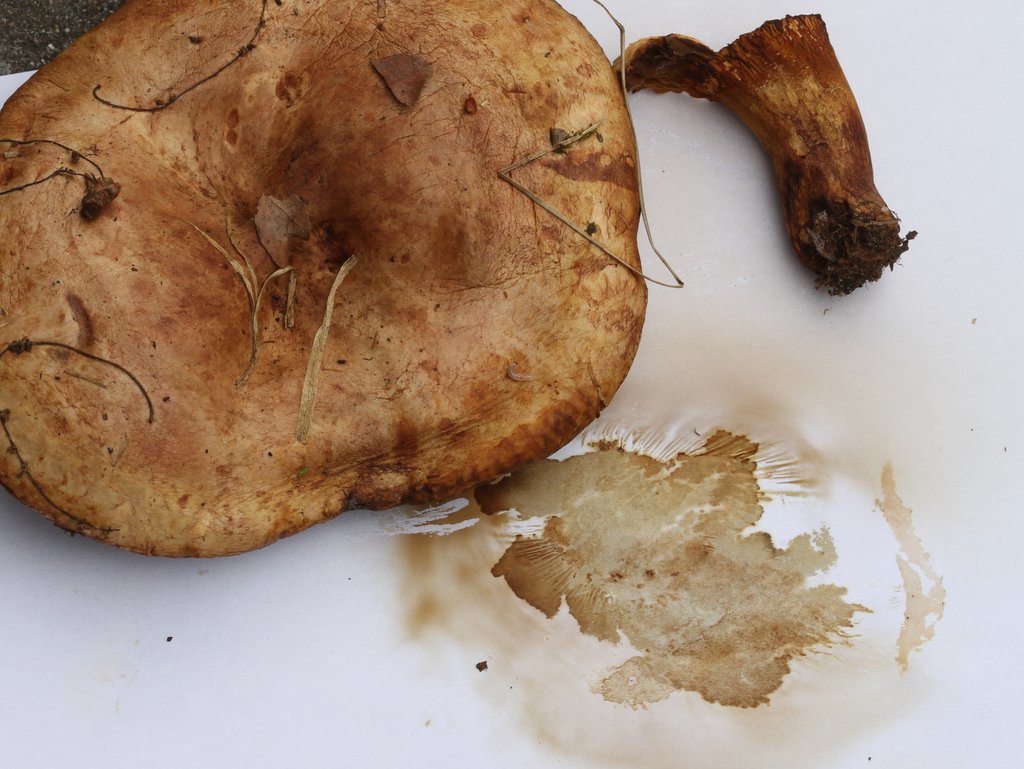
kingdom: Fungi
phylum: Basidiomycota
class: Agaricomycetes
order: Boletales
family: Paxillaceae
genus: Paxillus
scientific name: Paxillus ammoniavirescens
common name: olivensporet netbladhat
